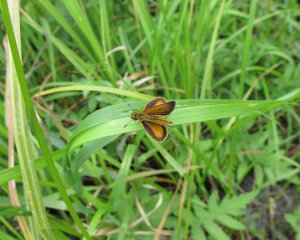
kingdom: Animalia
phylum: Arthropoda
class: Insecta
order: Lepidoptera
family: Hesperiidae
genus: Ancyloxypha
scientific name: Ancyloxypha numitor
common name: Least Skipper
